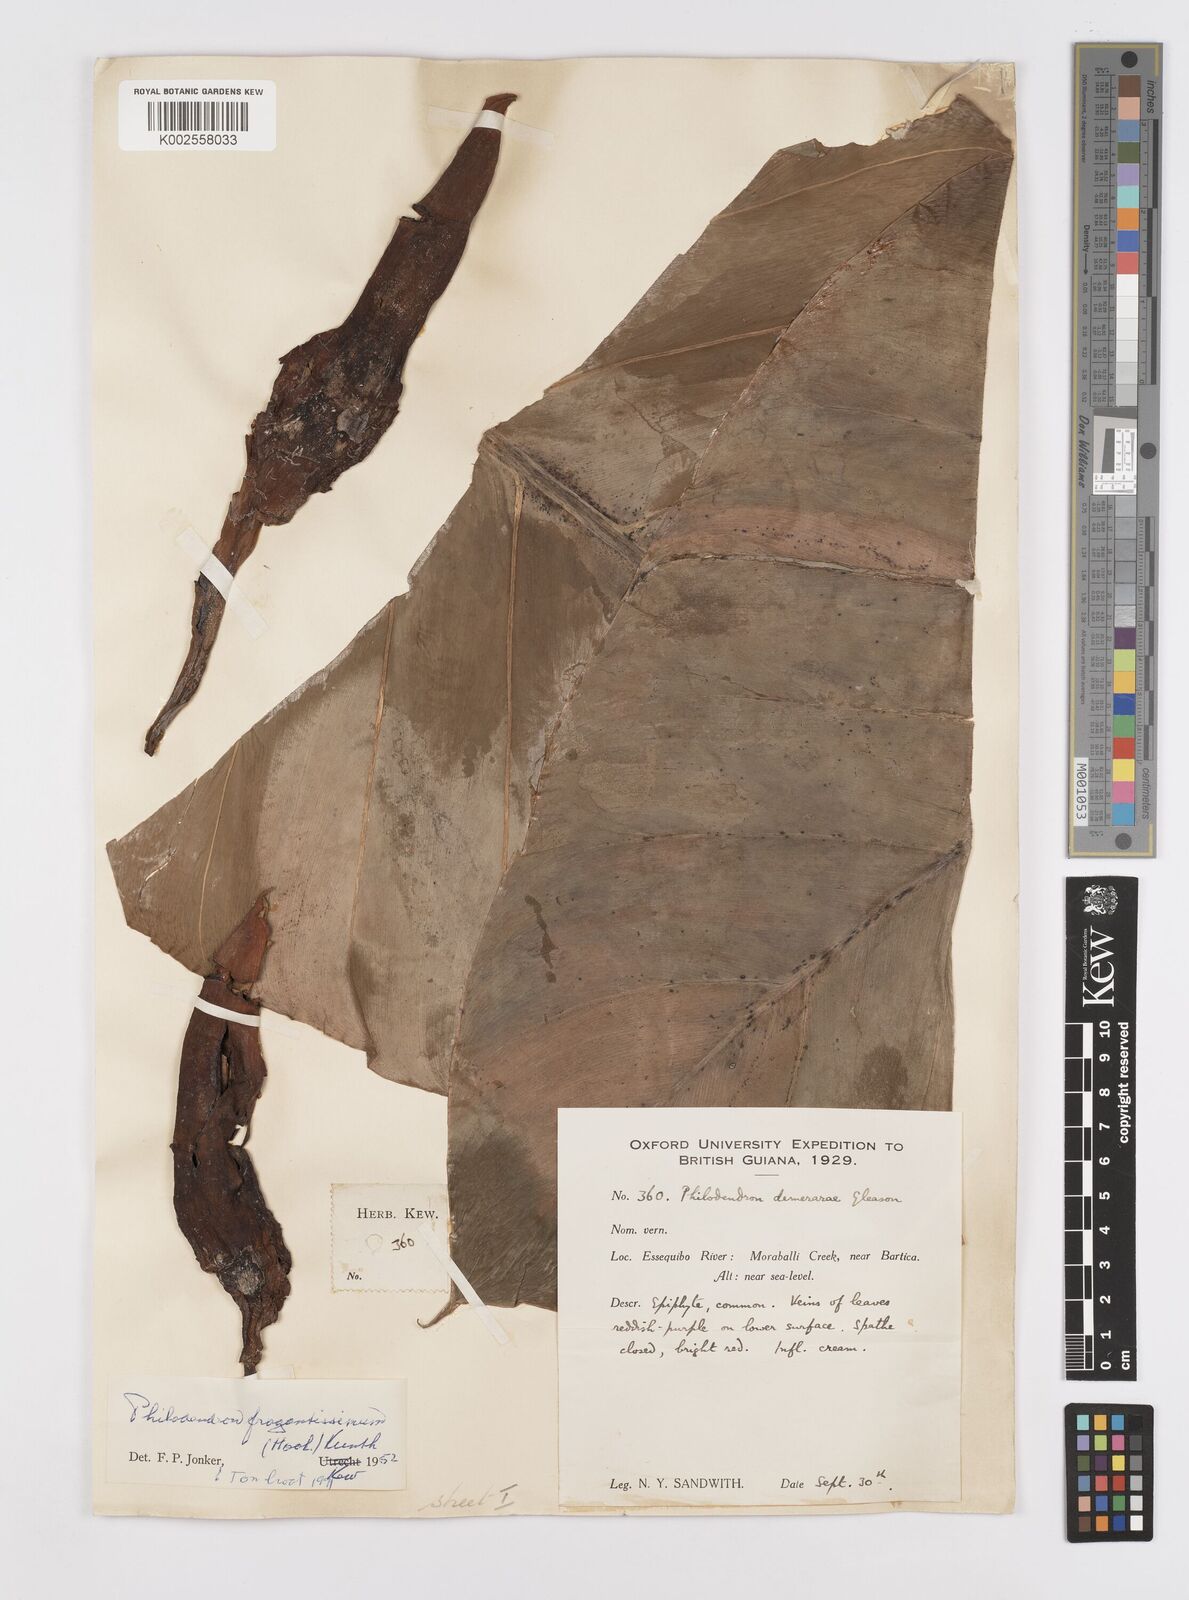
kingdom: Plantae
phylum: Tracheophyta
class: Liliopsida
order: Alismatales
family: Araceae
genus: Philodendron
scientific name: Philodendron fragrantissimum
